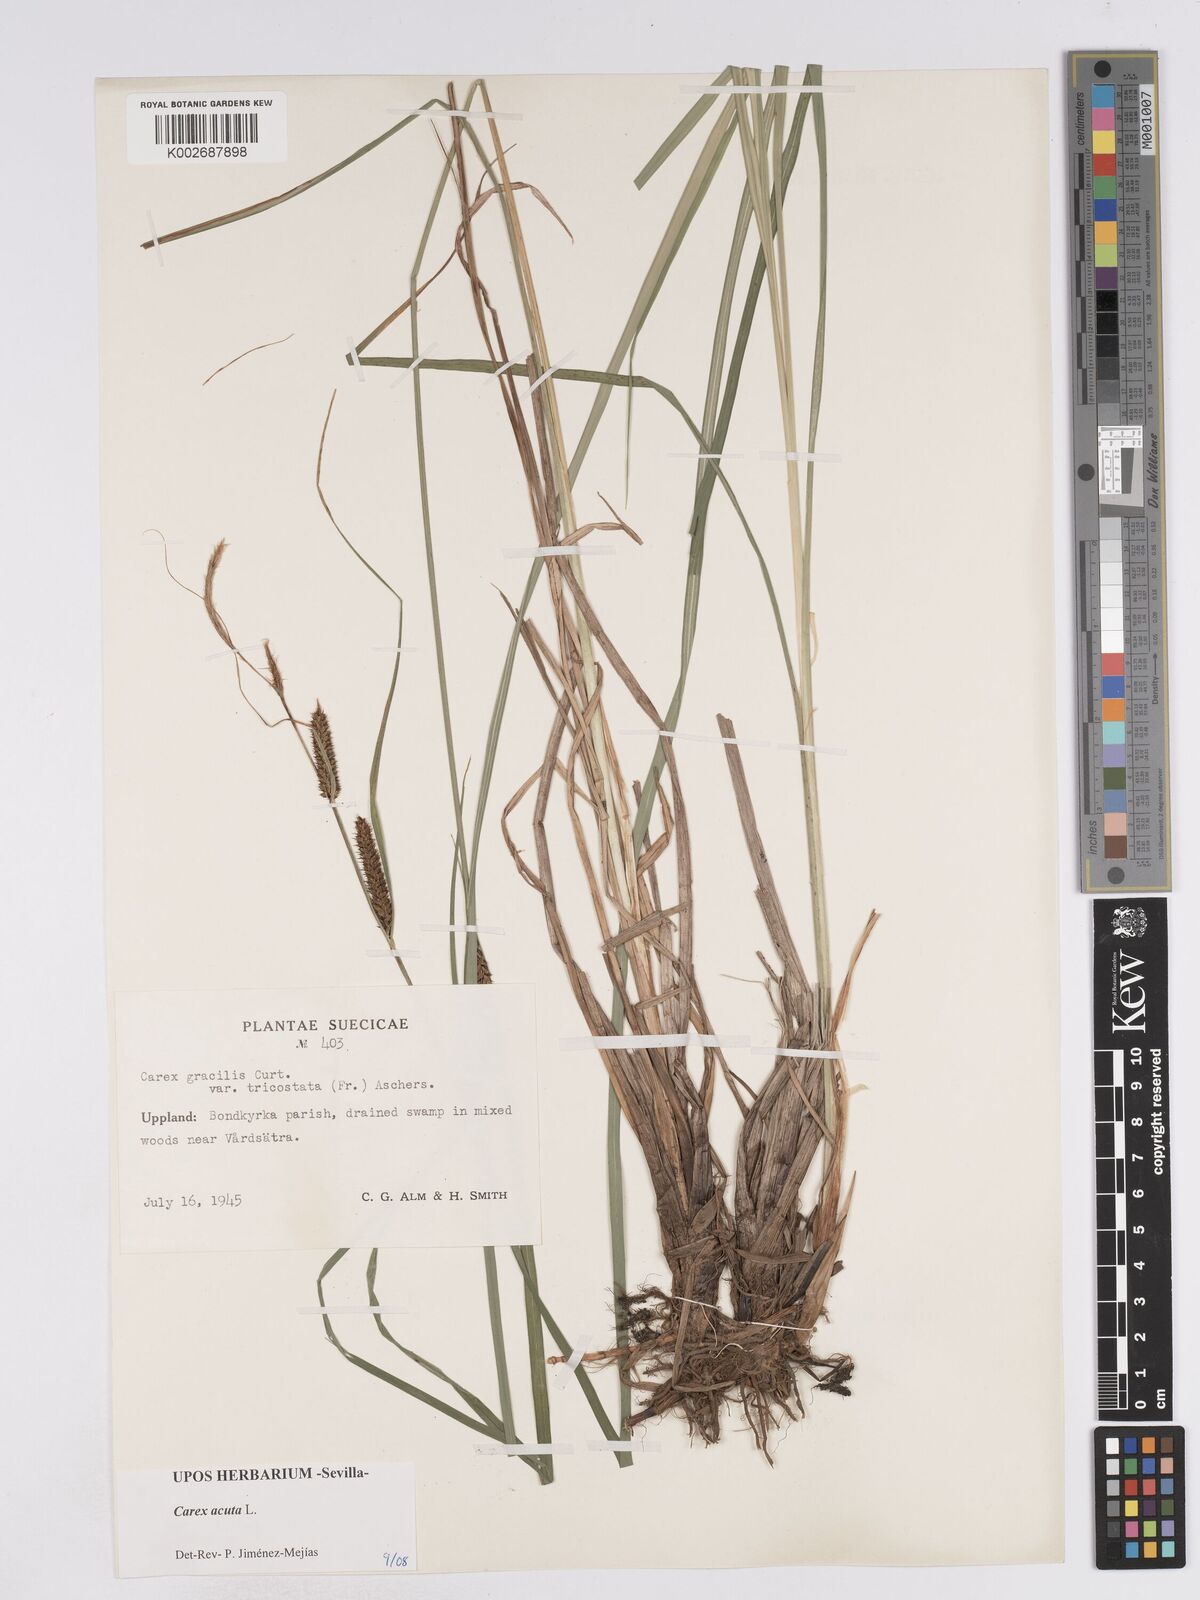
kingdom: Plantae
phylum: Tracheophyta
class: Liliopsida
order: Poales
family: Cyperaceae
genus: Carex
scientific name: Carex acuta
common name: Slender tufted-sedge
